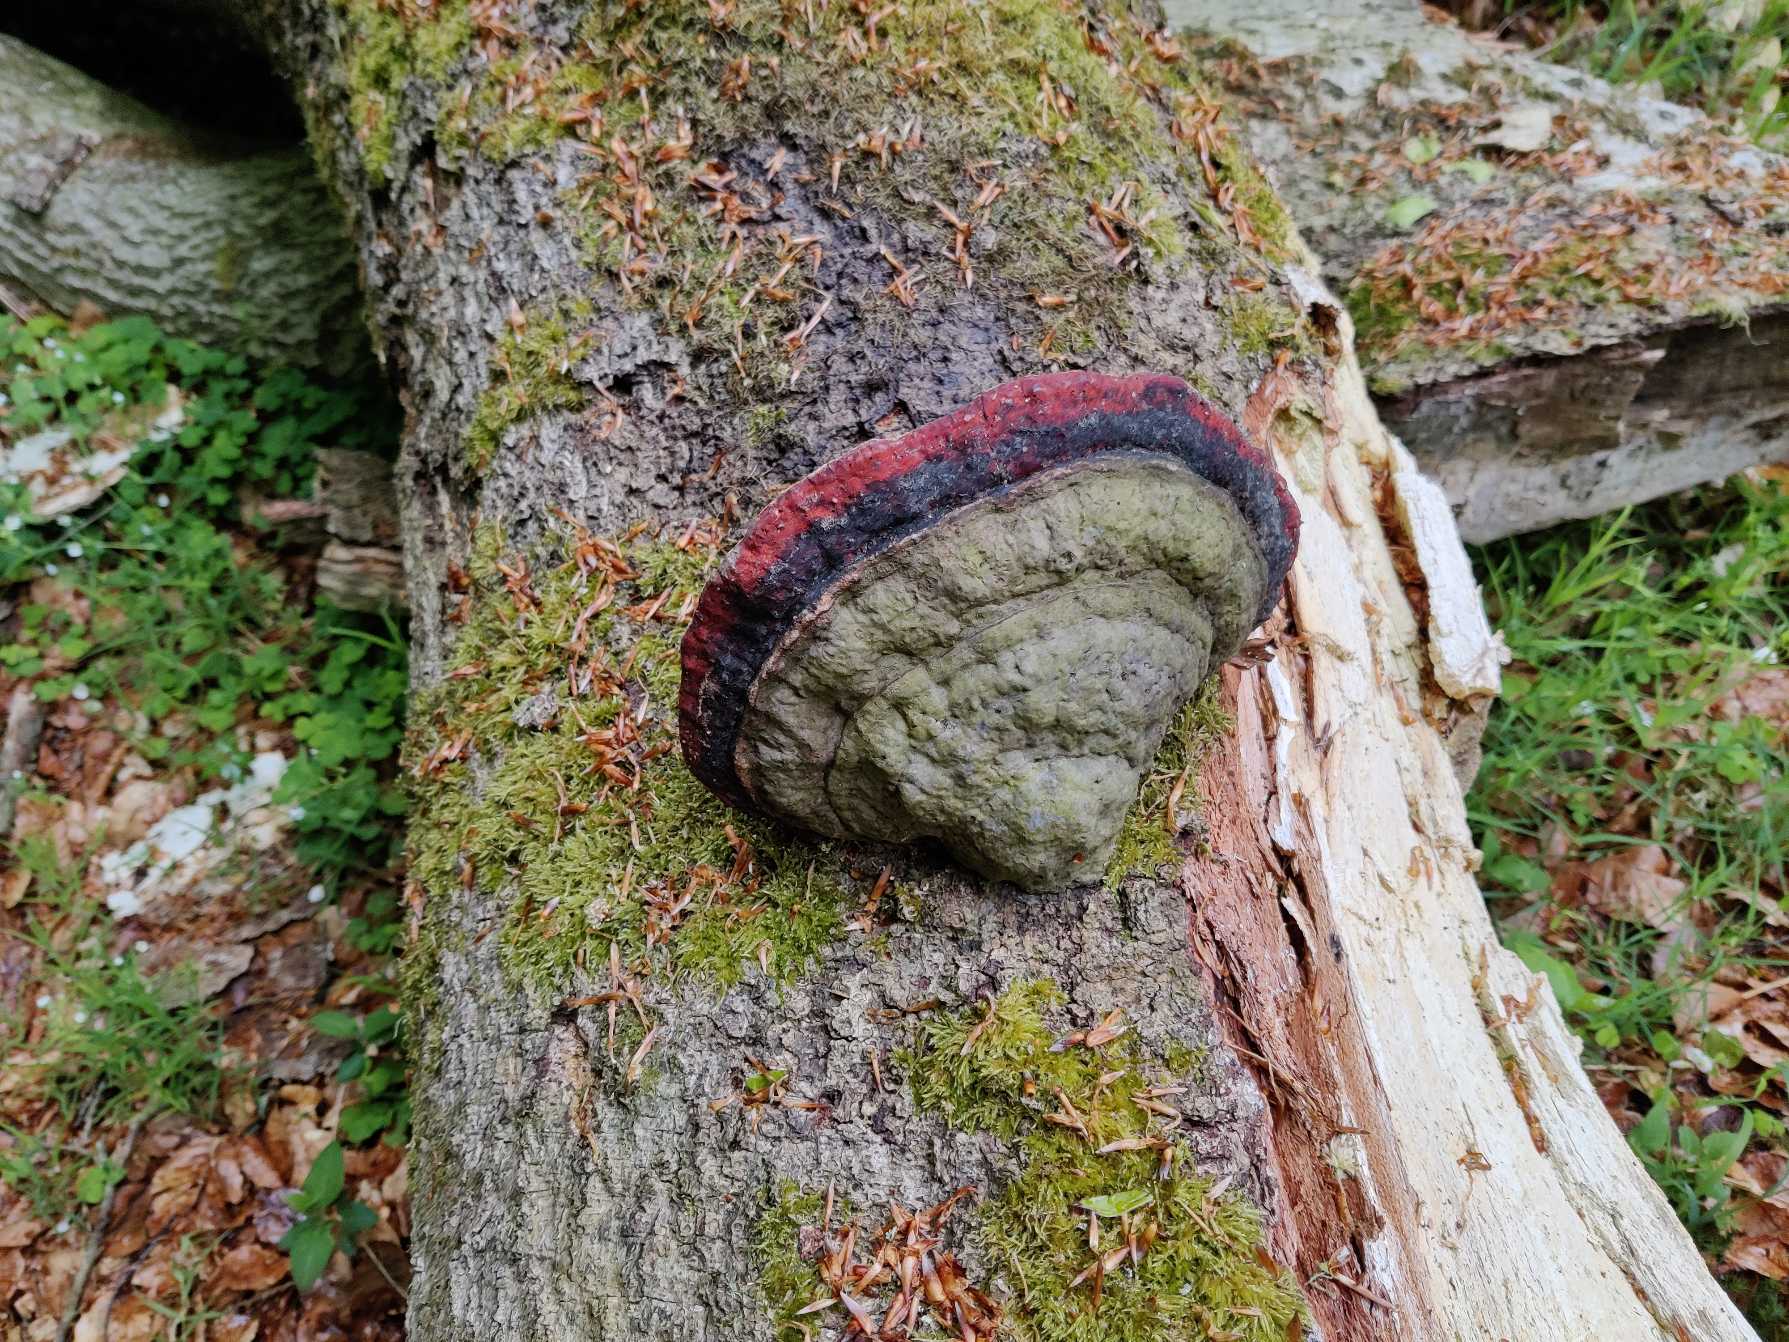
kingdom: Fungi
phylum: Basidiomycota
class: Agaricomycetes
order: Polyporales
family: Fomitopsidaceae
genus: Fomitopsis
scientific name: Fomitopsis pinicola
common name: Randbæltet hovporesvamp
